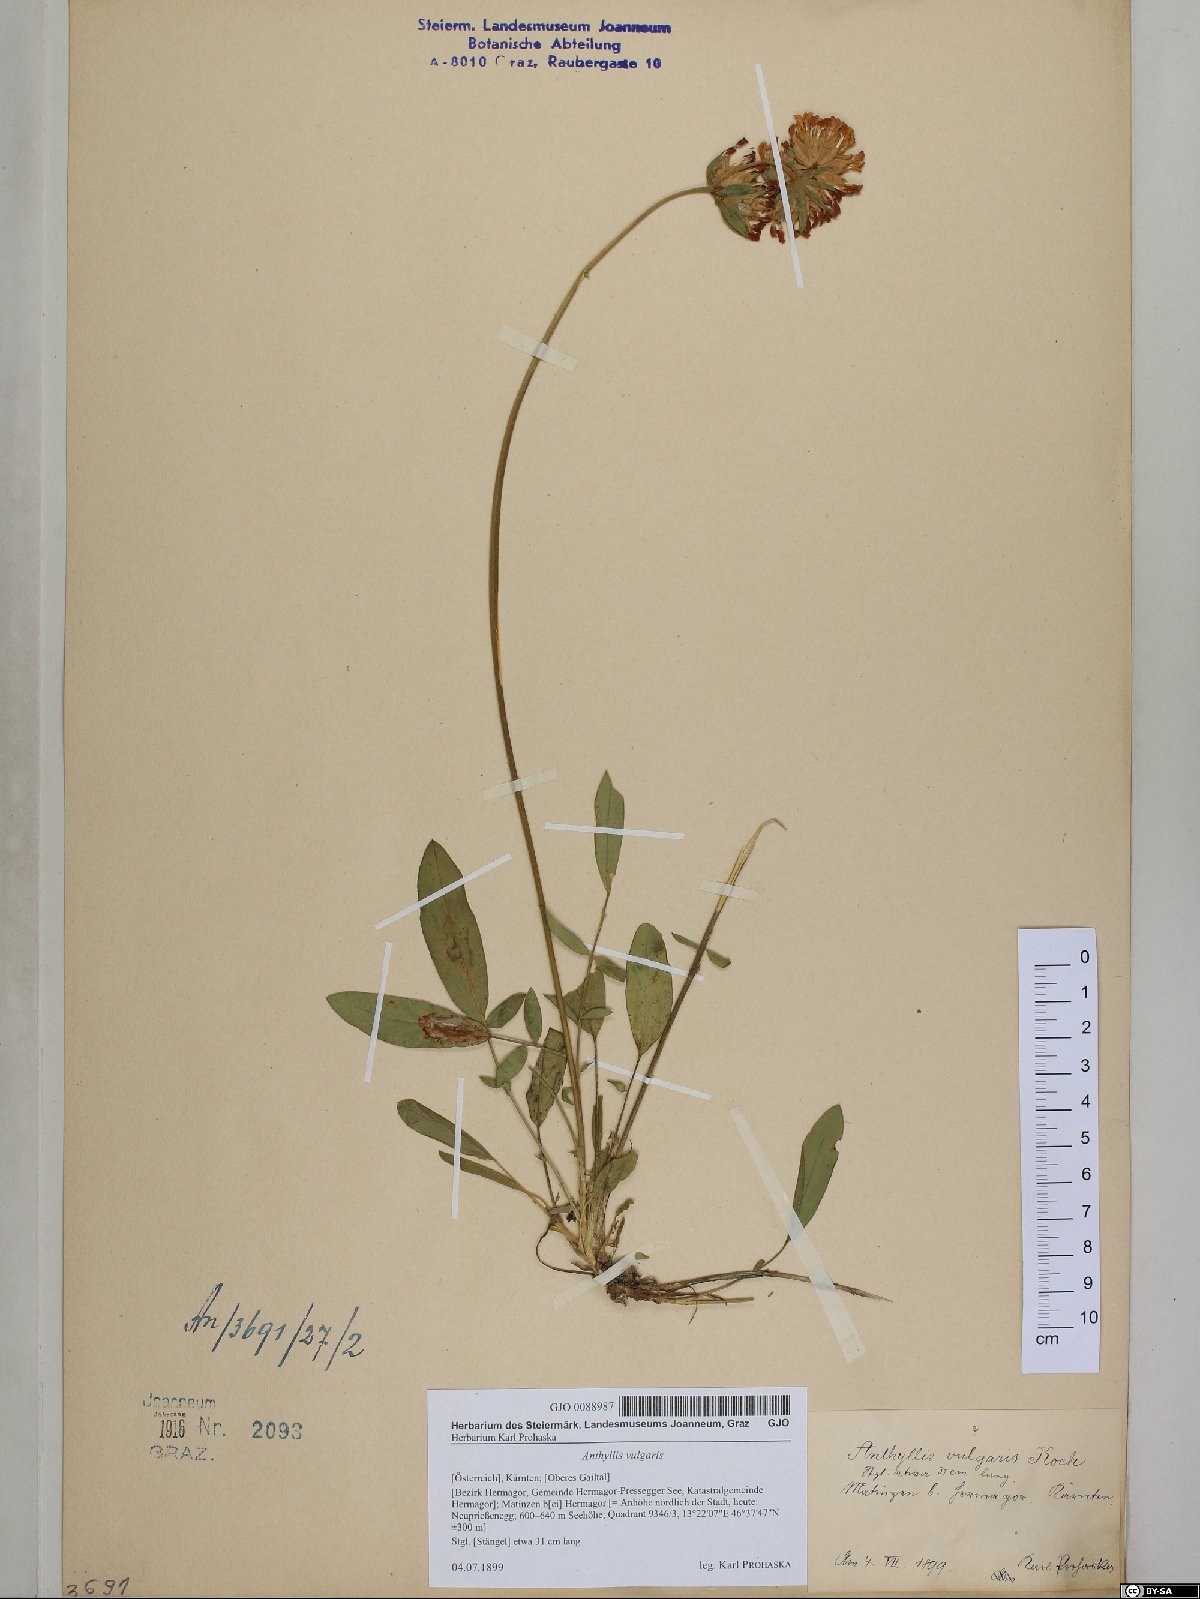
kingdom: Plantae
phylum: Tracheophyta
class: Magnoliopsida
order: Fabales
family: Fabaceae
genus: Anthyllis
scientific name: Anthyllis vulneraria
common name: Kidney vetch
